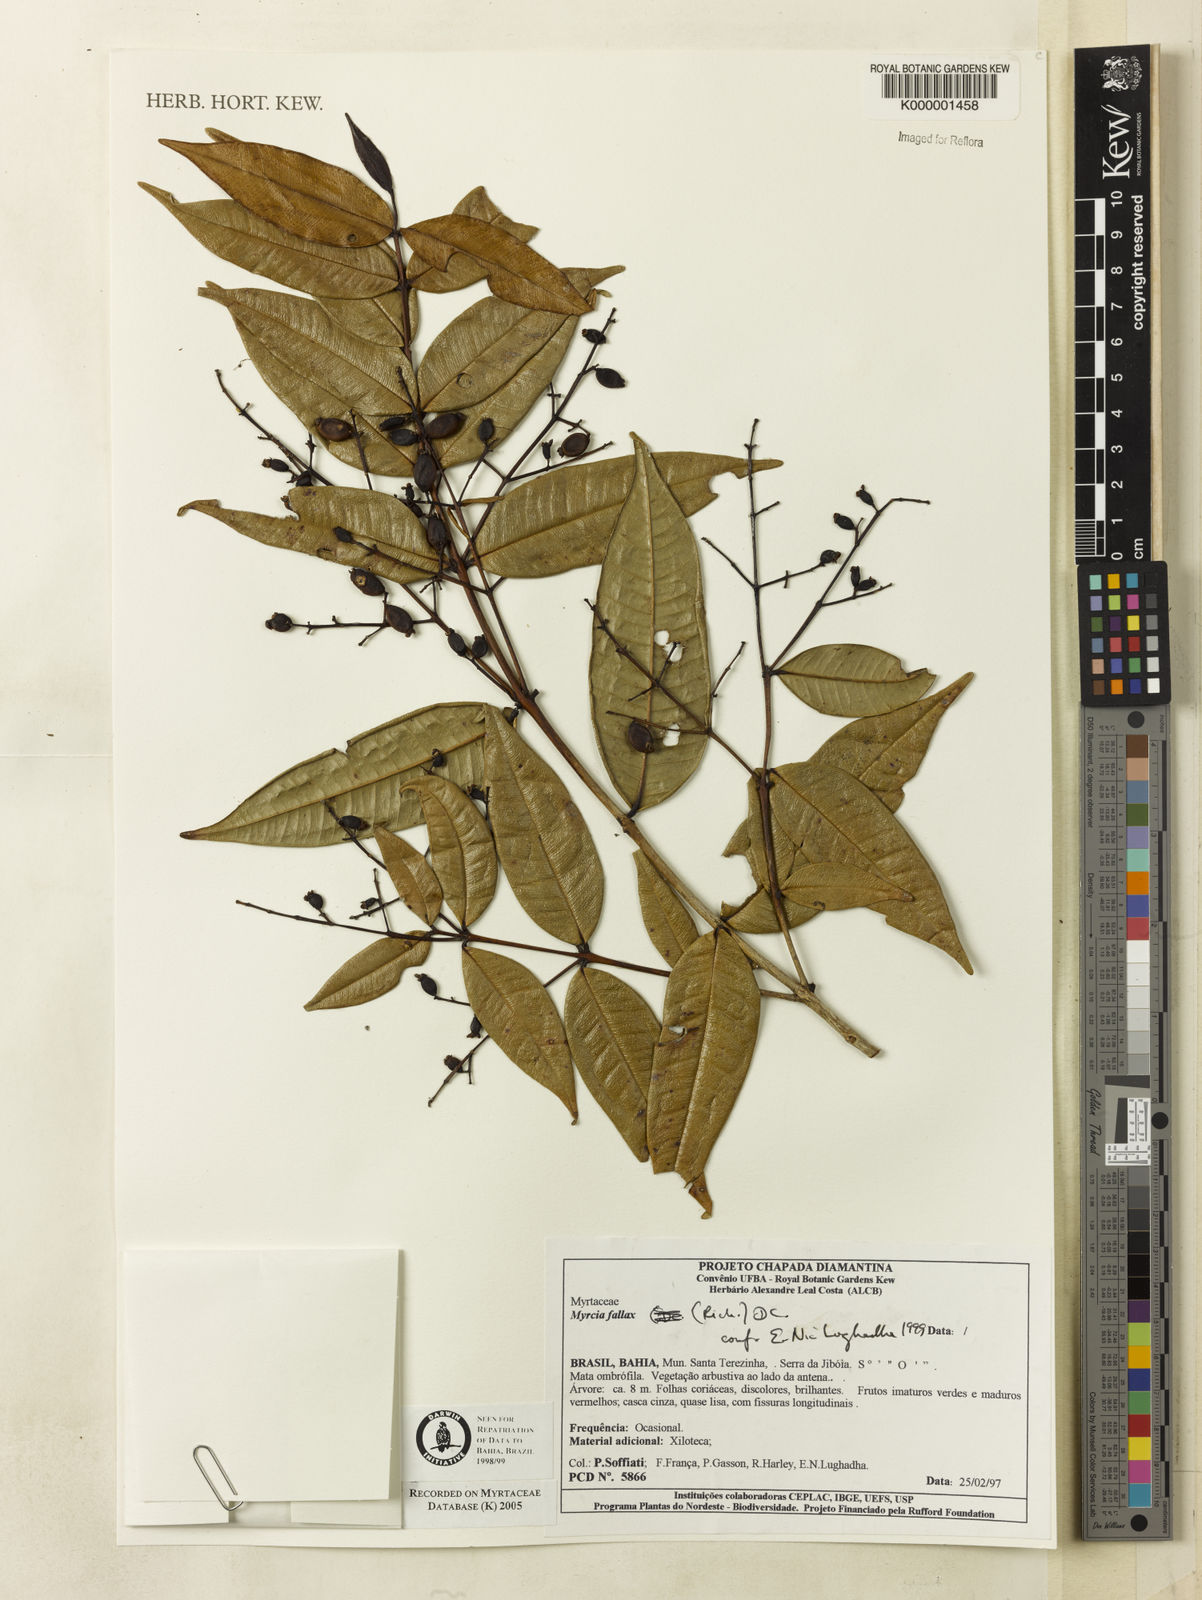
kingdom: Plantae
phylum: Tracheophyta
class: Magnoliopsida
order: Myrtales
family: Myrtaceae
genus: Myrcia
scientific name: Myrcia splendens
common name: Surinam cherry
